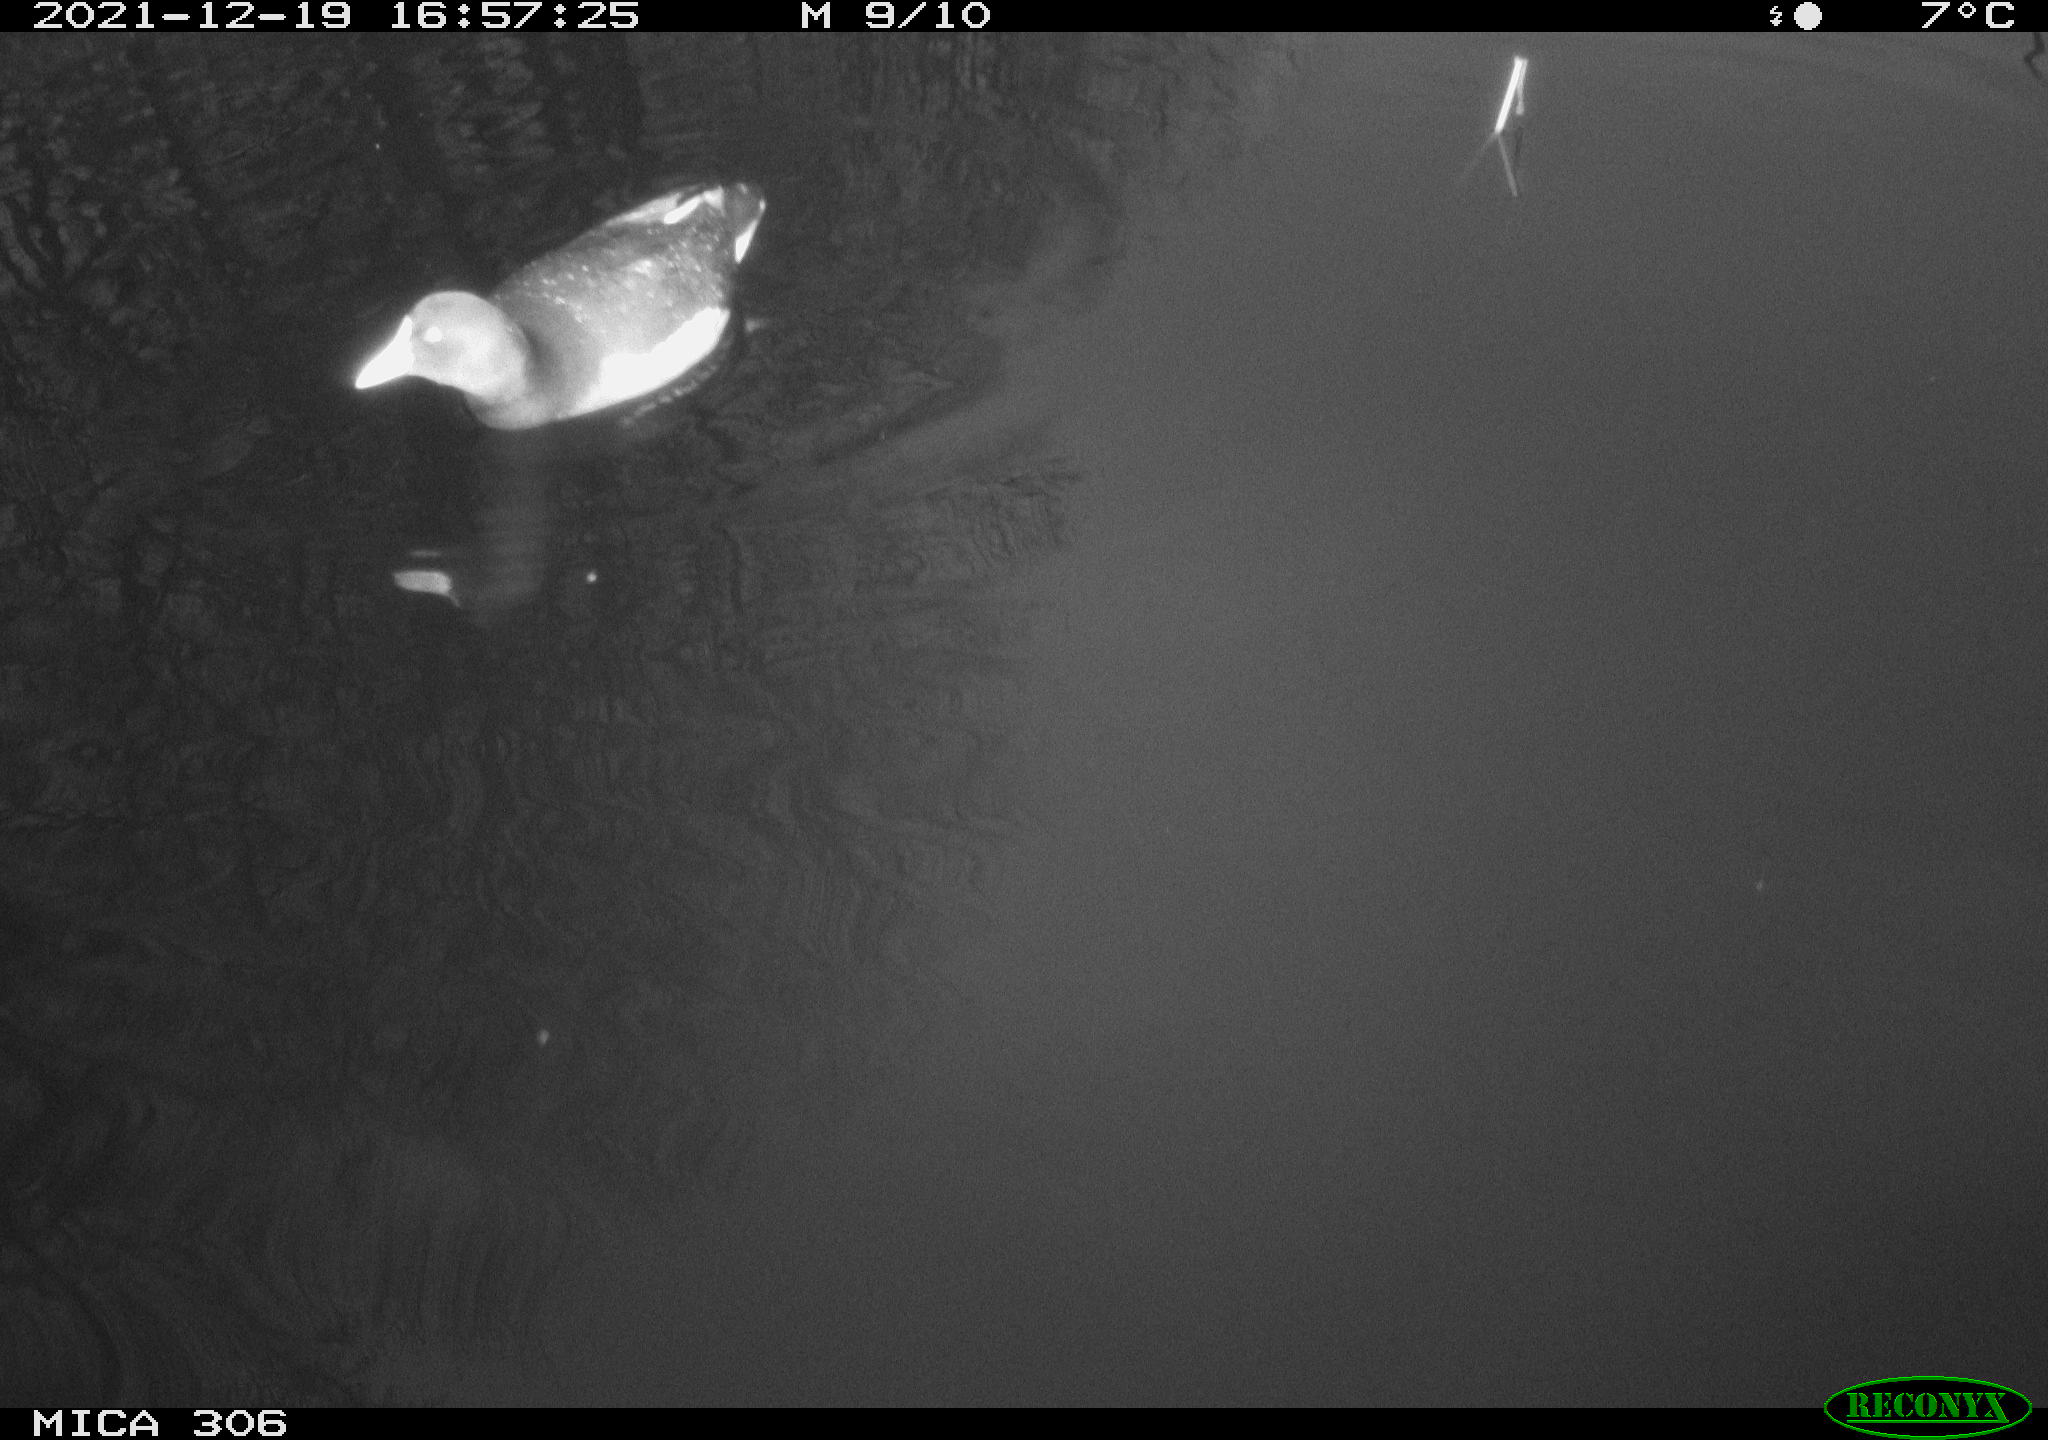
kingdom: Animalia
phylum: Chordata
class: Aves
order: Anseriformes
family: Anatidae
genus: Anas
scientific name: Anas
